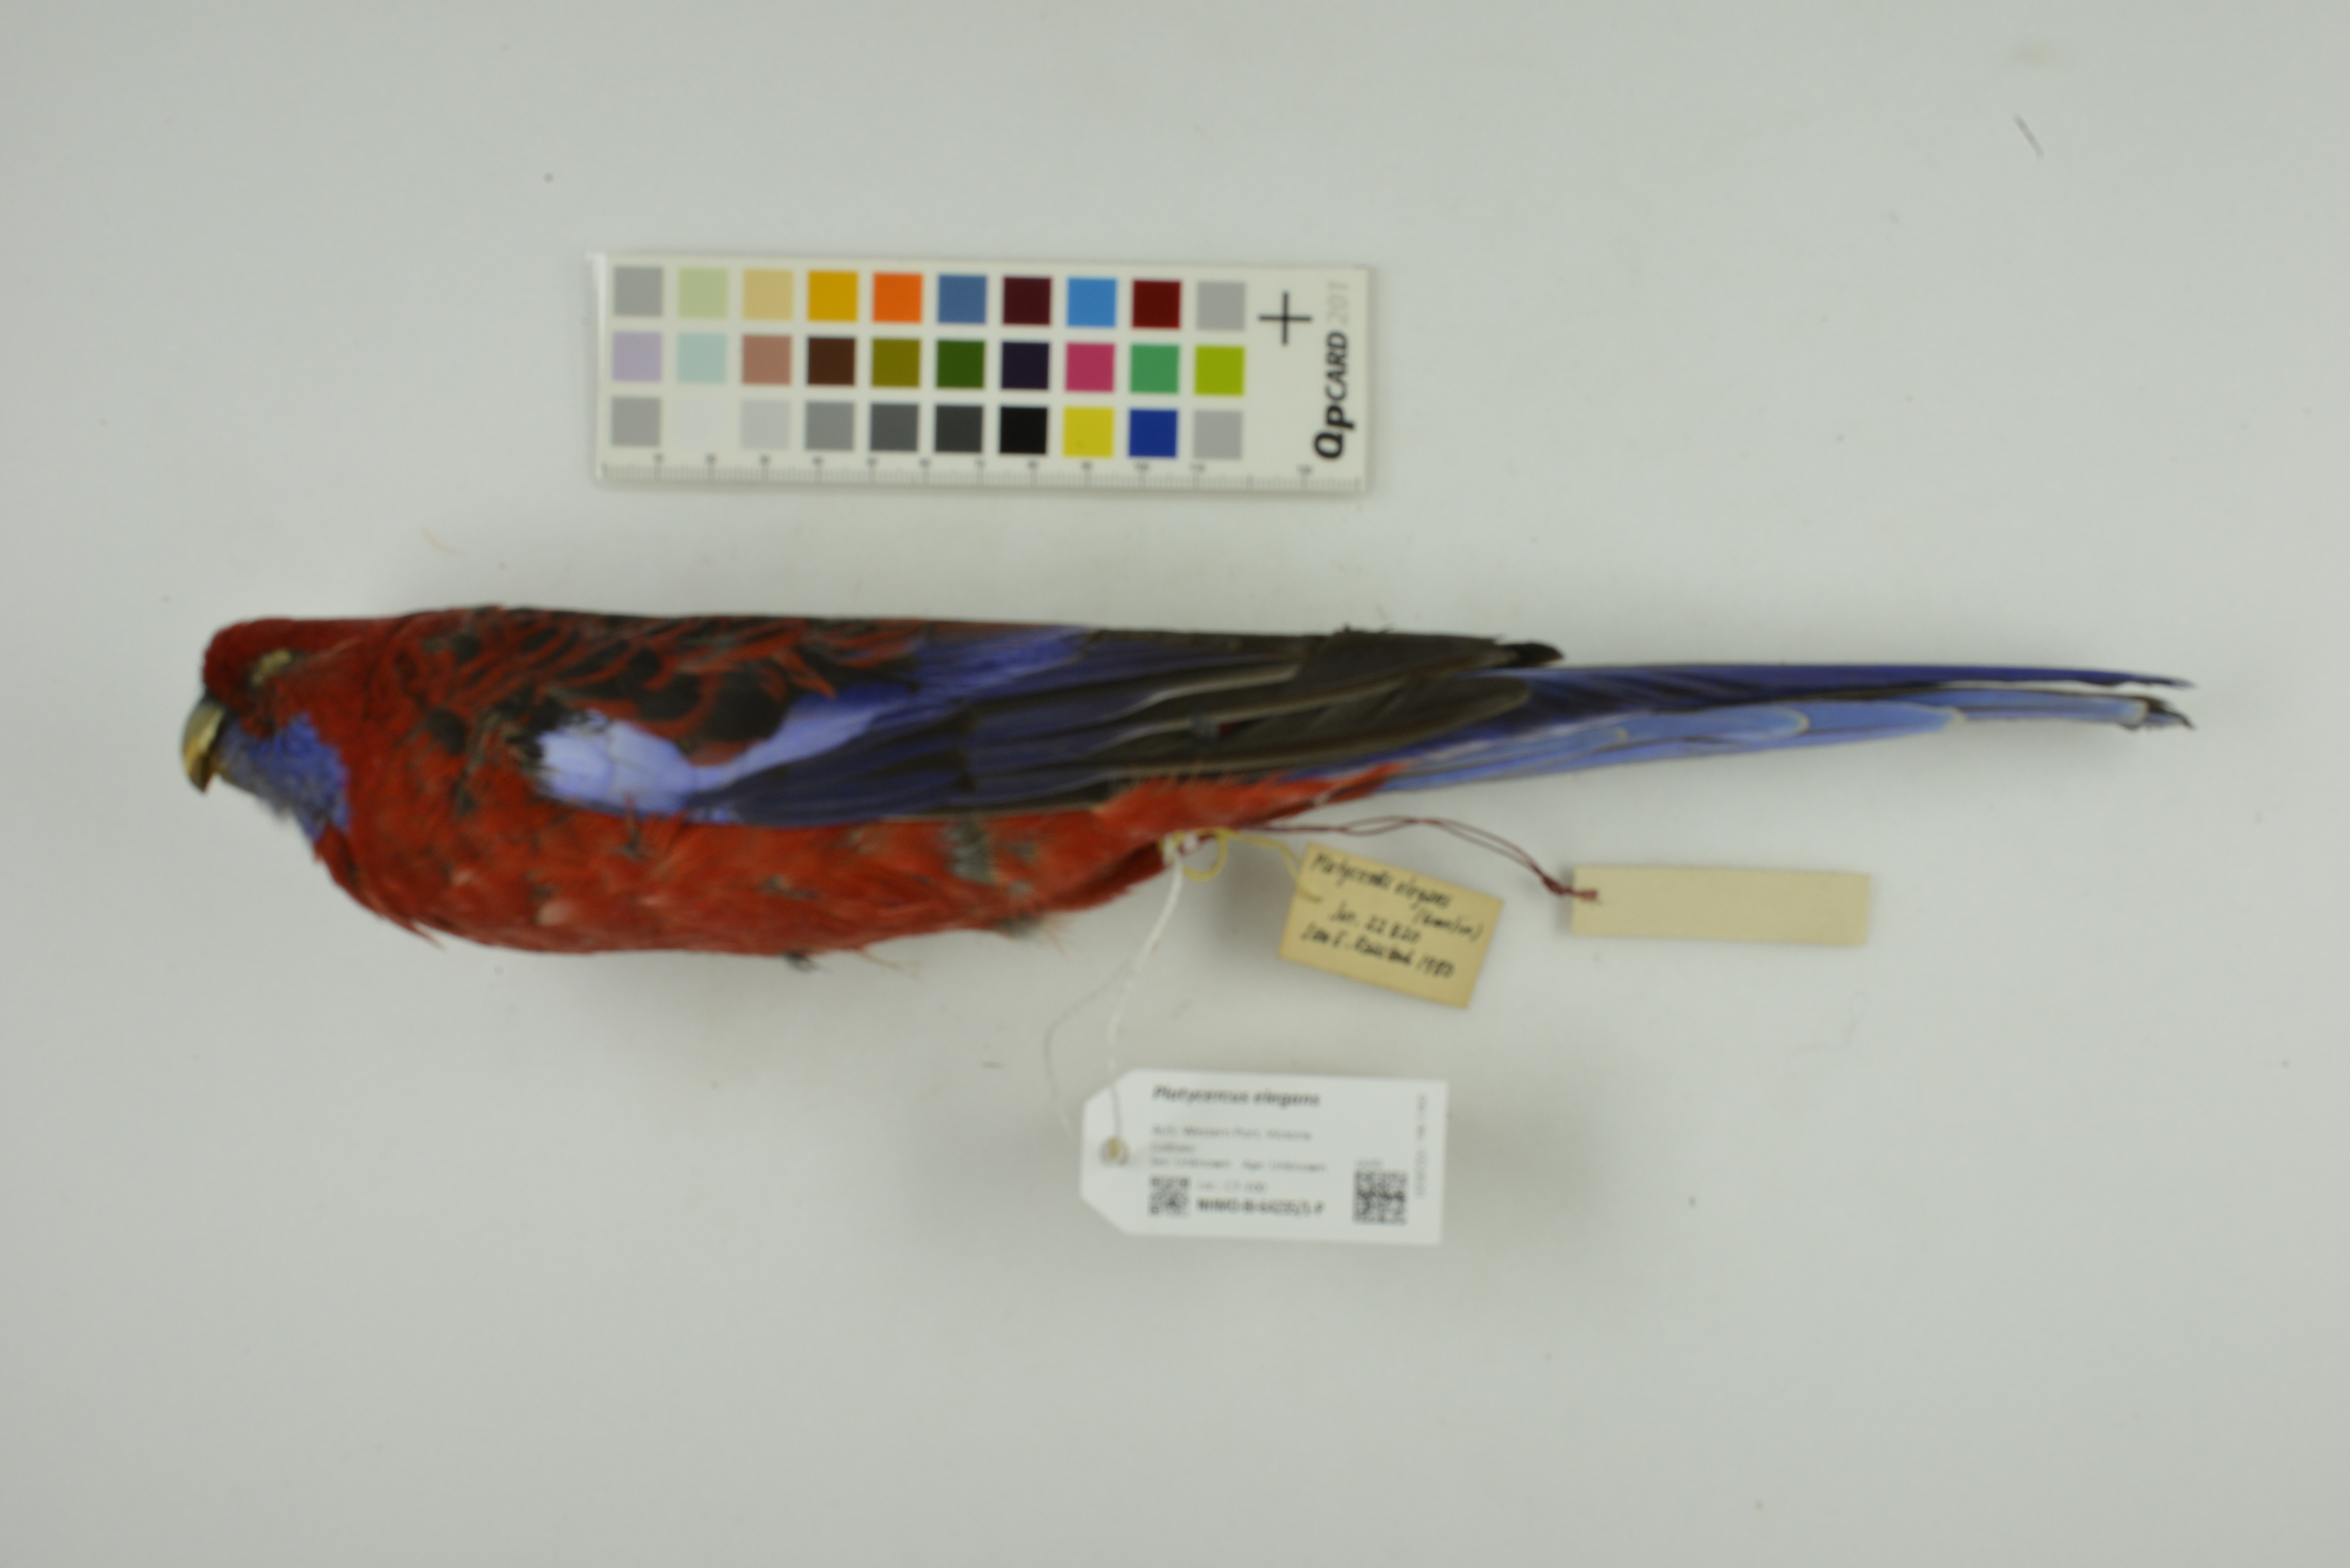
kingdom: Animalia
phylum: Chordata
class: Aves
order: Psittaciformes
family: Psittacidae
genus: Platycercus
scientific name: Platycercus elegans
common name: Crimson rosella
